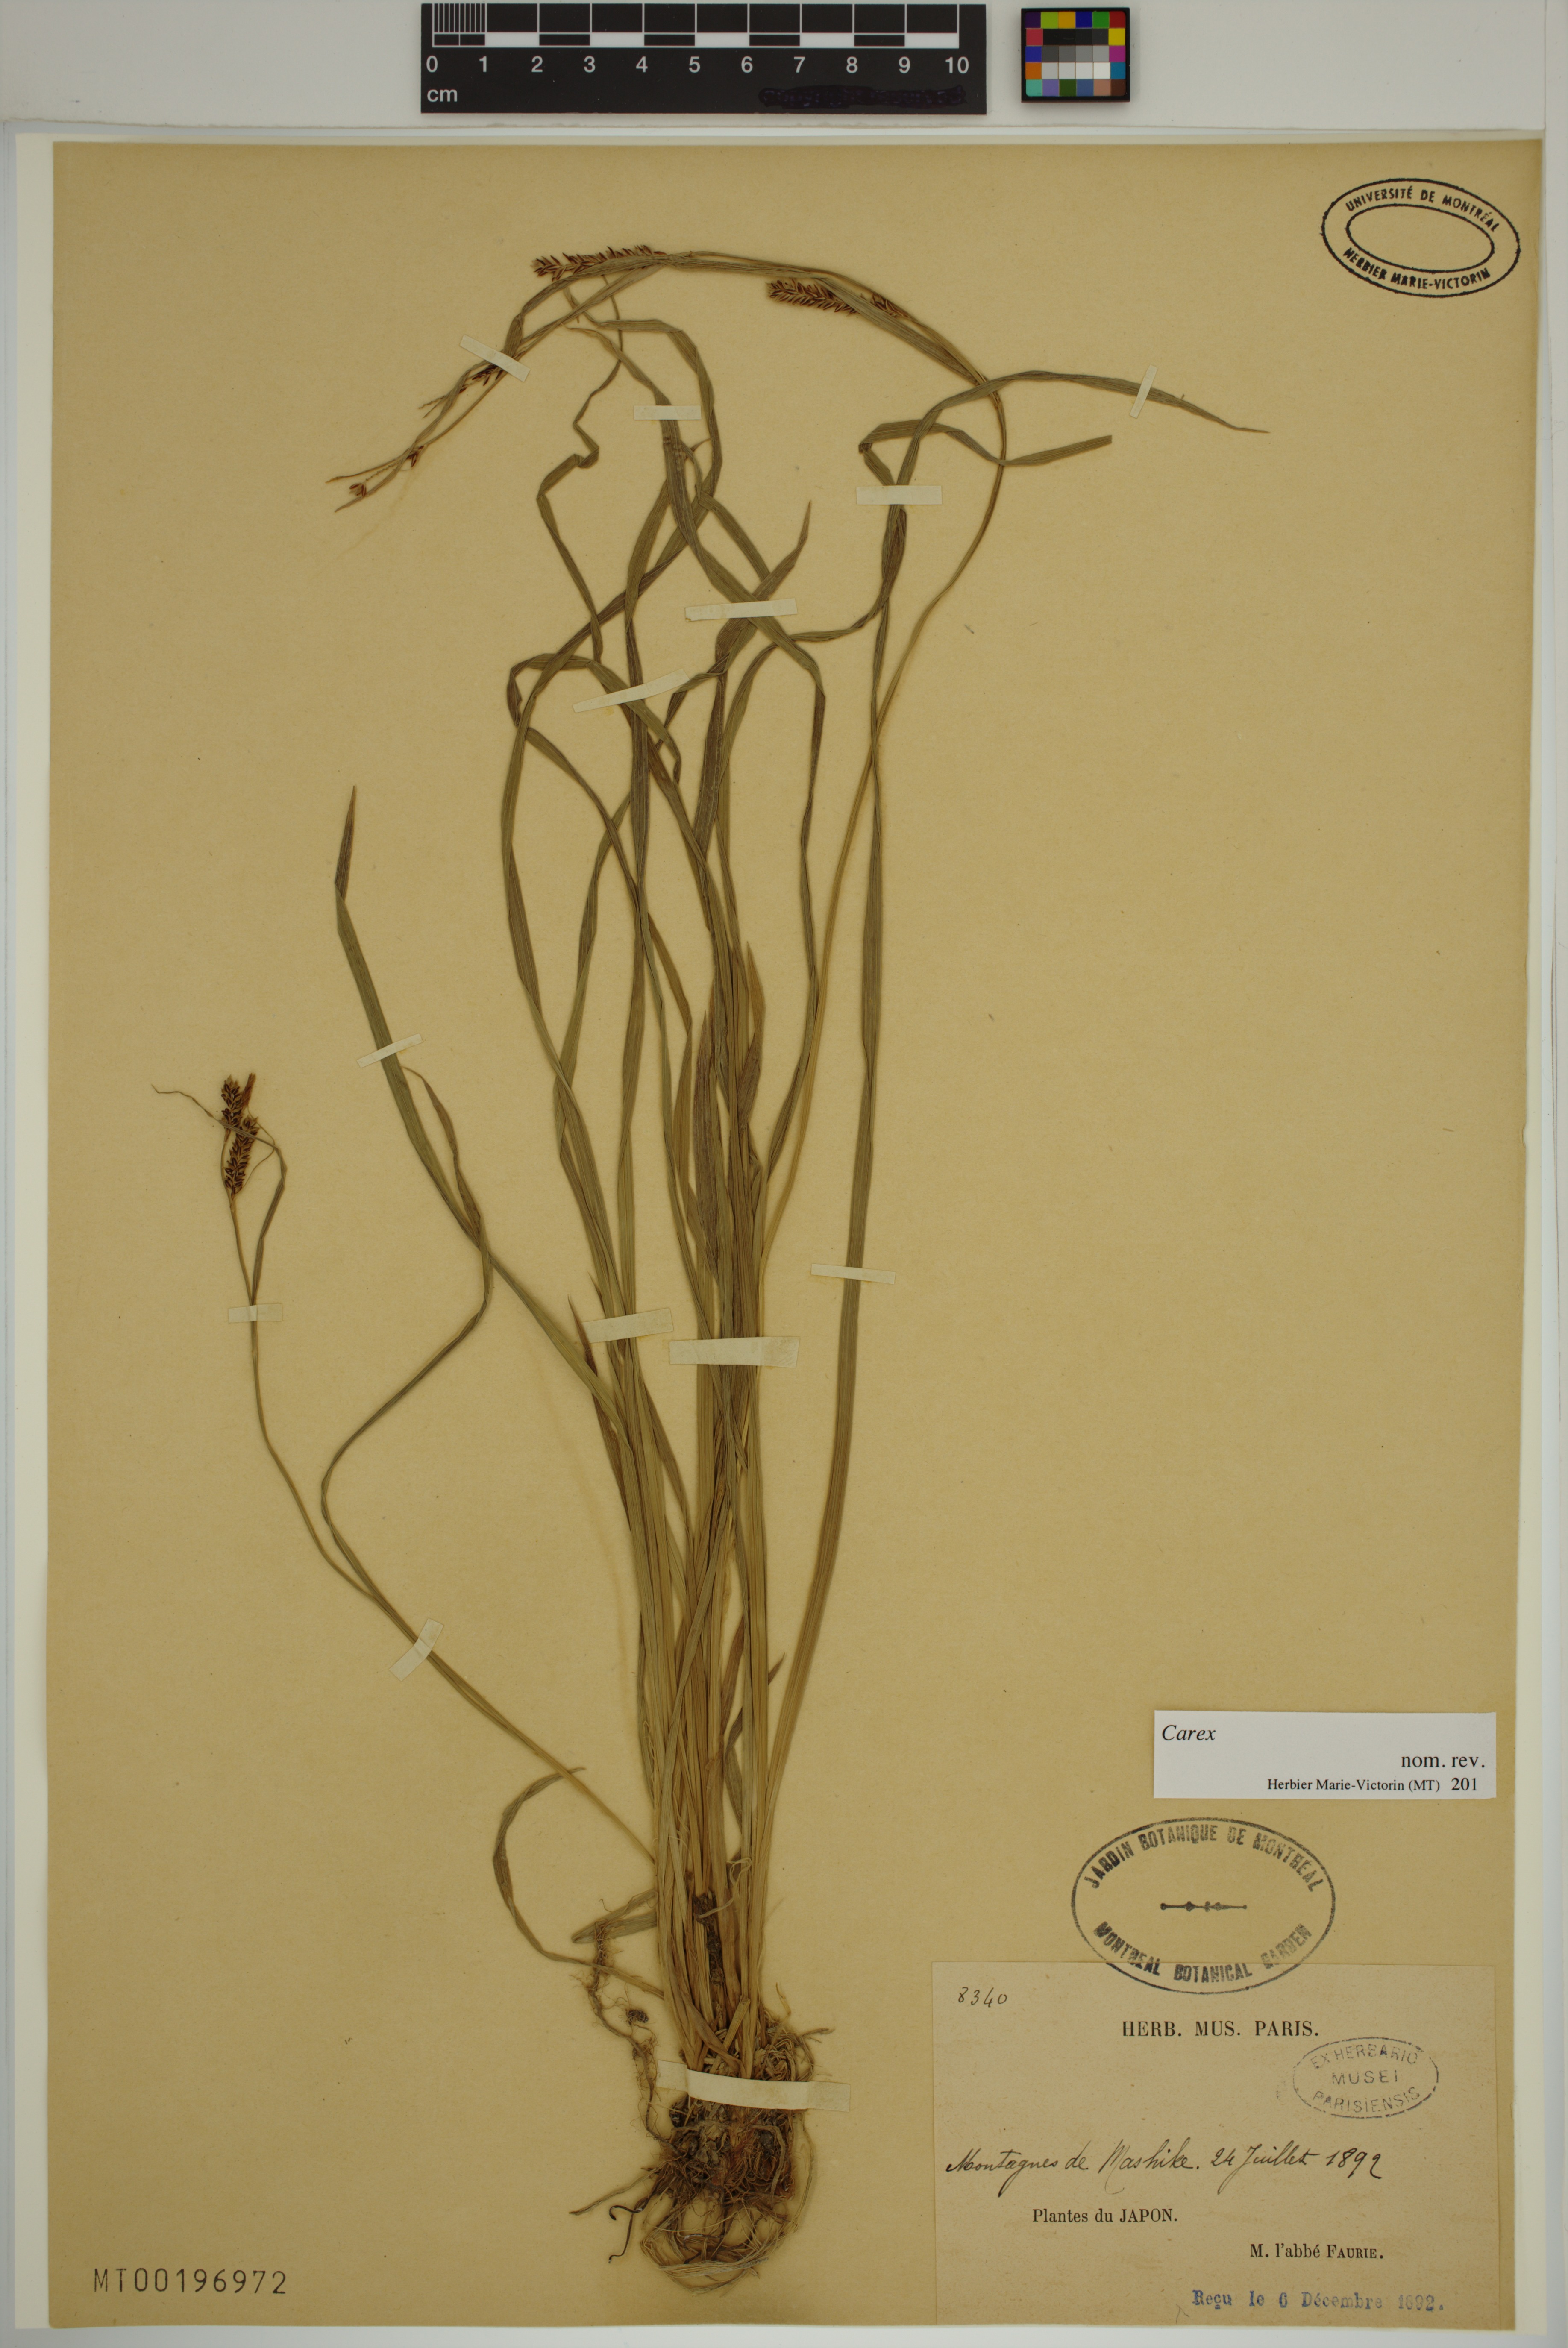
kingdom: Plantae
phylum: Tracheophyta
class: Liliopsida
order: Poales
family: Cyperaceae
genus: Carex
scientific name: Carex
